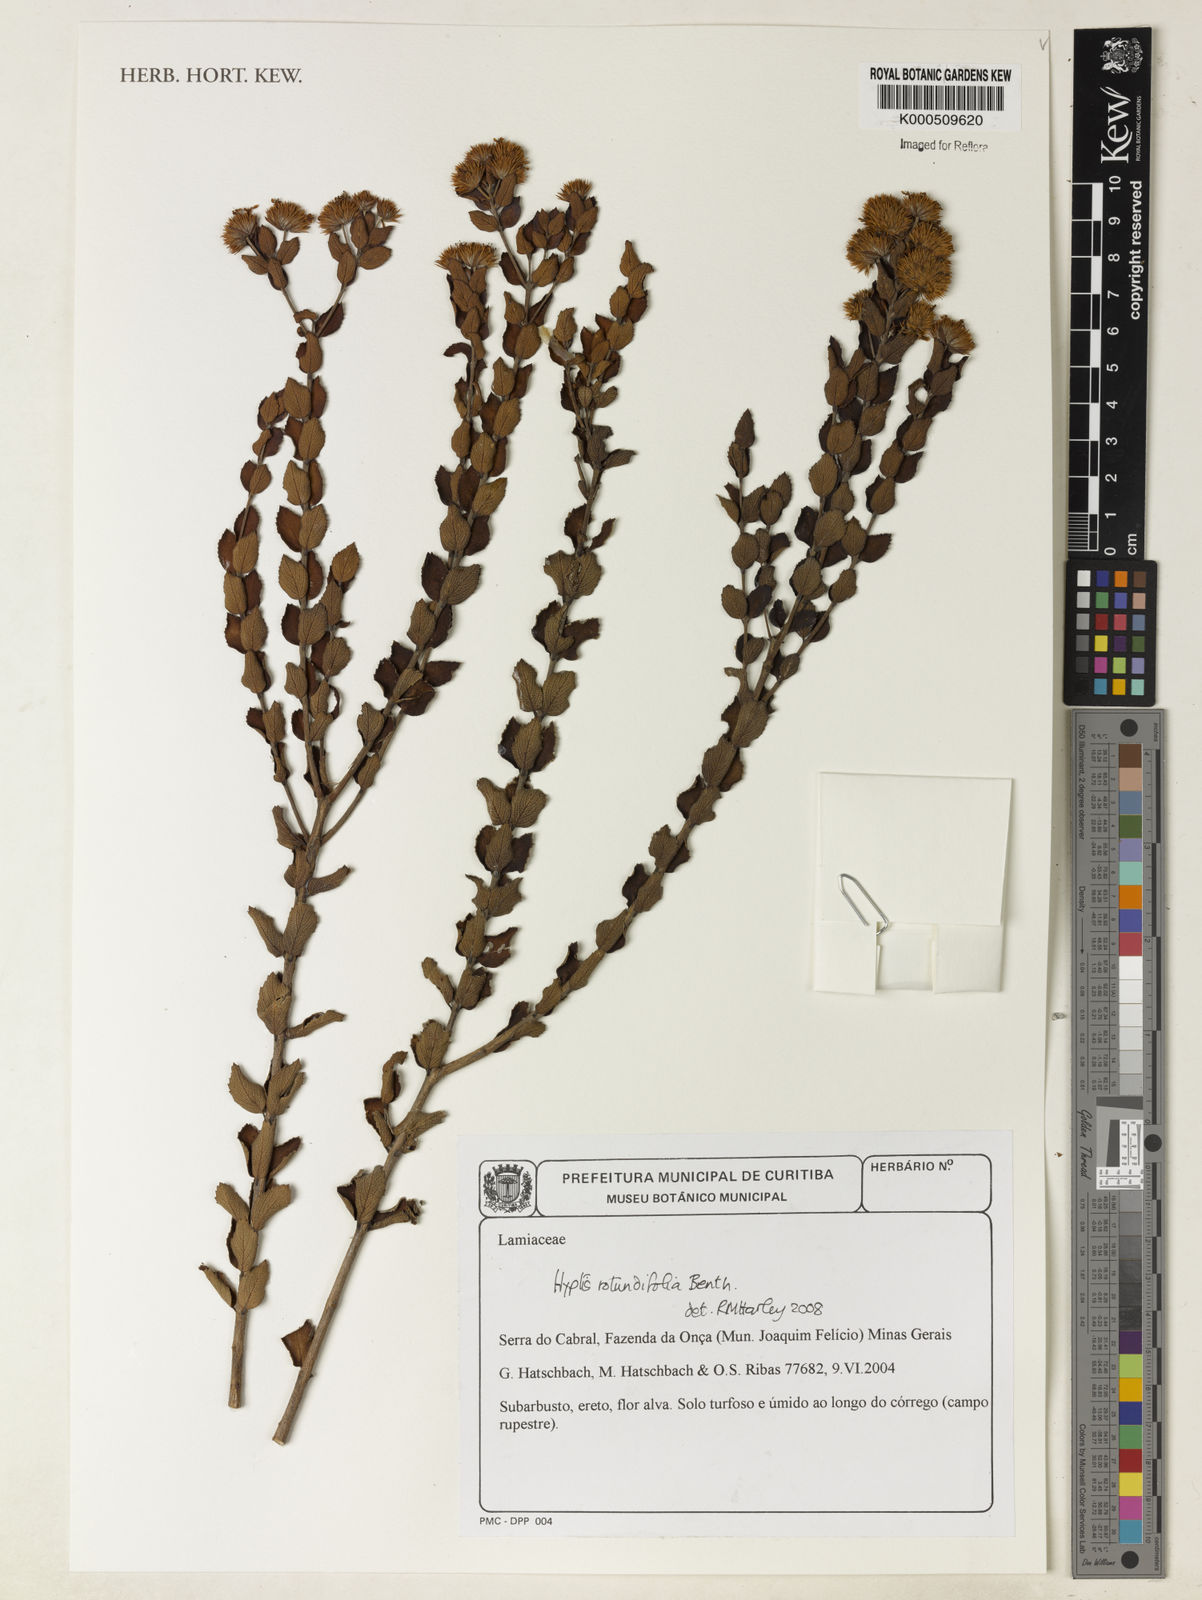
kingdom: Plantae
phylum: Tracheophyta
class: Magnoliopsida
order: Lamiales
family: Lamiaceae
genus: Hyptis
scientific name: Hyptis
